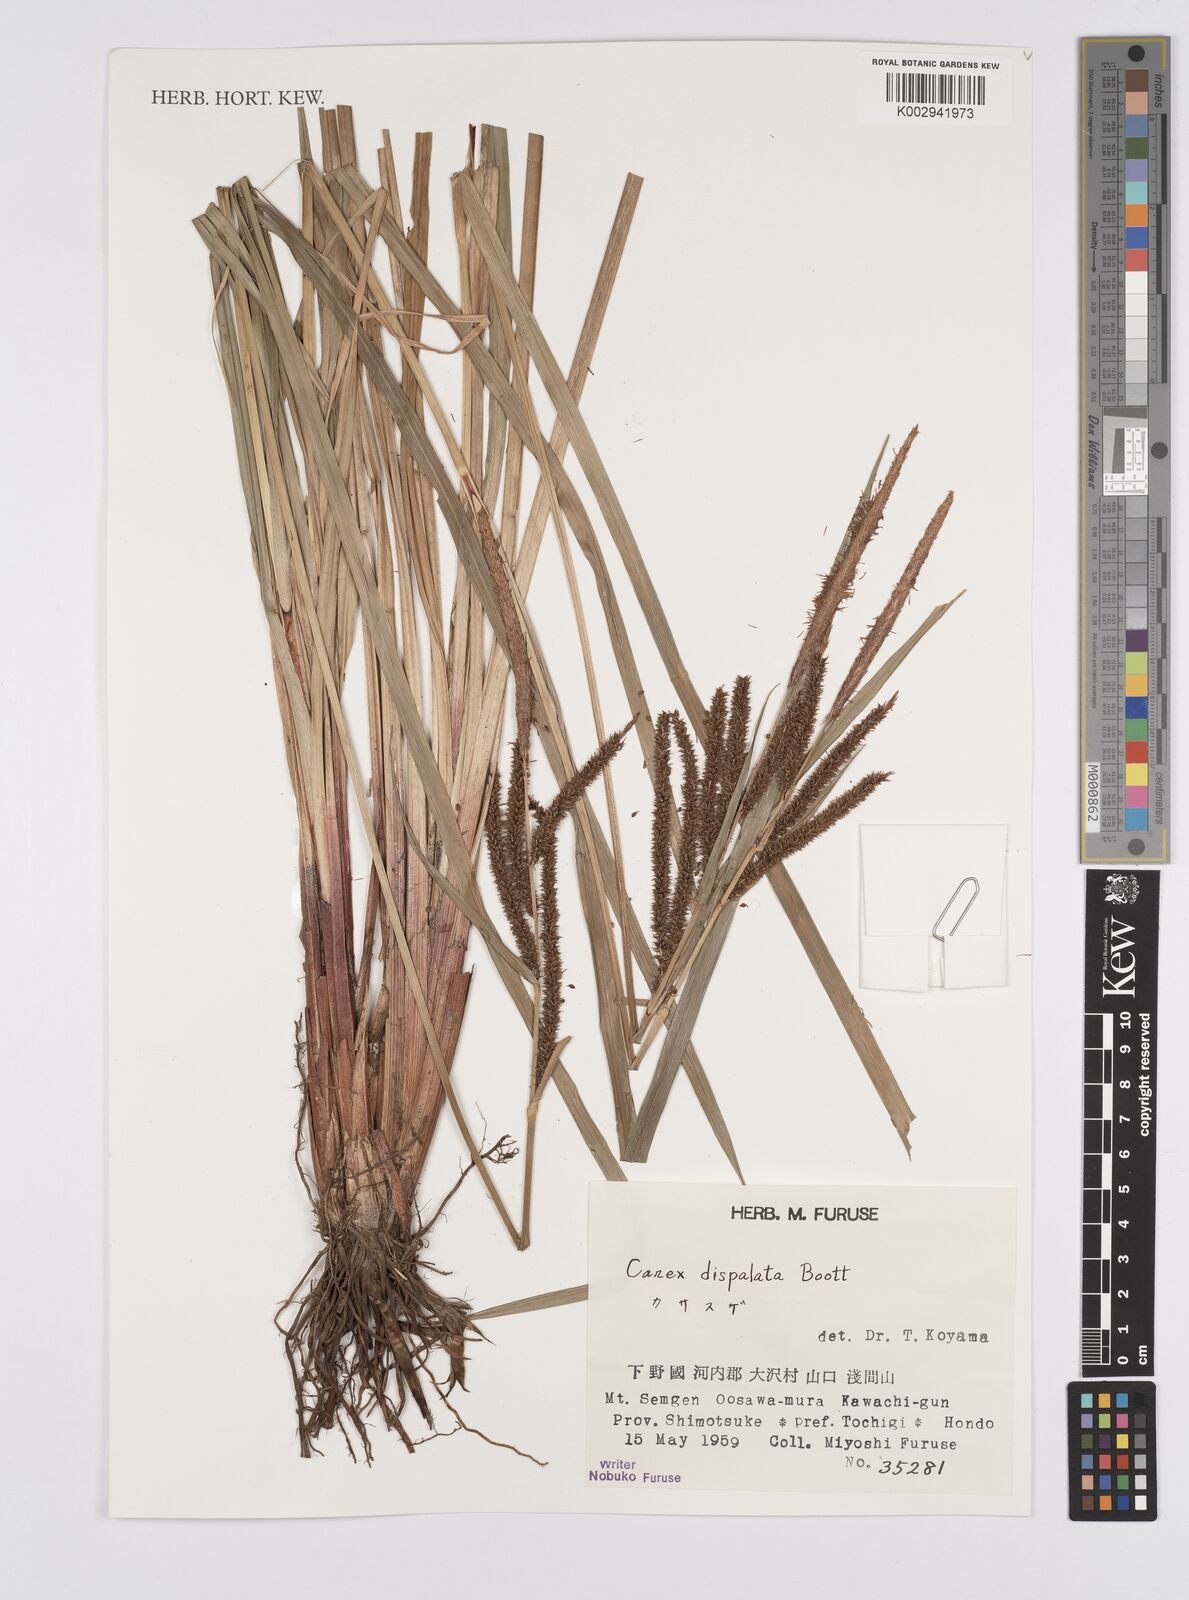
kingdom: Plantae
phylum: Tracheophyta
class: Liliopsida
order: Poales
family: Cyperaceae
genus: Carex
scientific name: Carex dispalata
